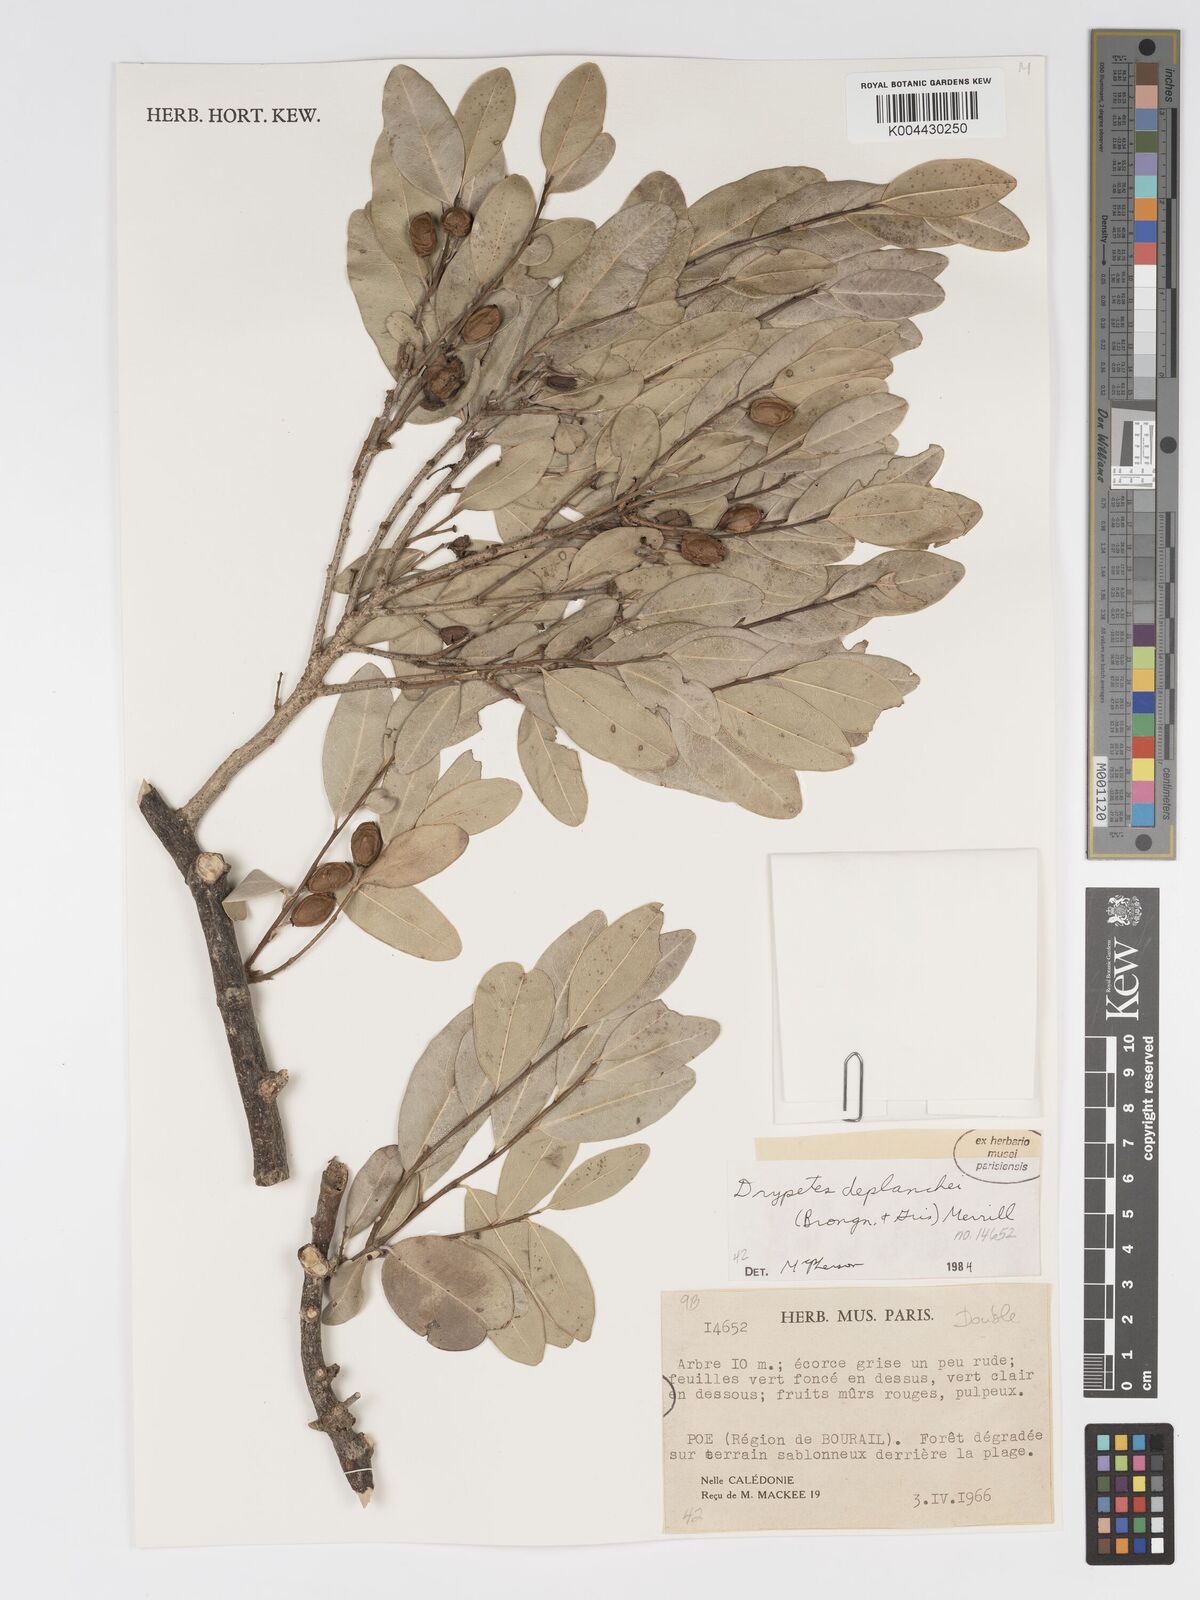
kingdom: Plantae
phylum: Tracheophyta
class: Magnoliopsida
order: Malpighiales
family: Putranjivaceae
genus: Drypetes
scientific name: Drypetes deplanchei
